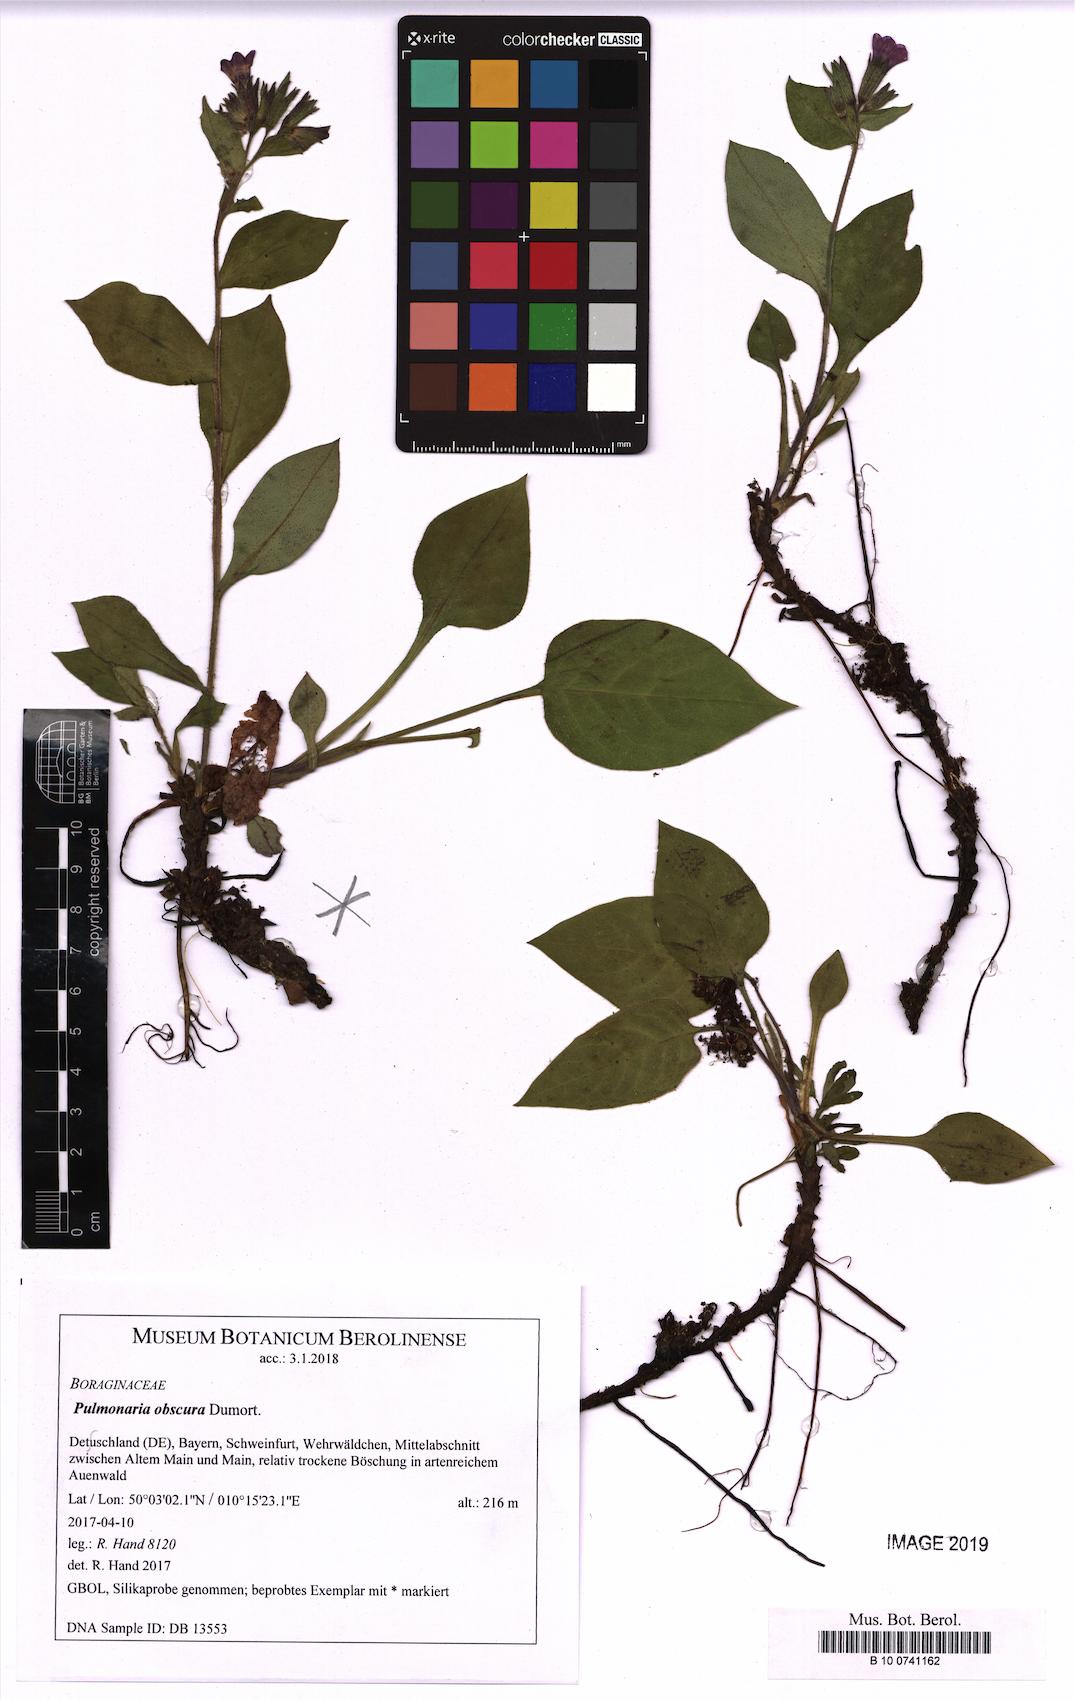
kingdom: Plantae
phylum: Tracheophyta
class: Magnoliopsida
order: Boraginales
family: Boraginaceae
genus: Pulmonaria
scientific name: Pulmonaria obscura
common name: Suffolk lungwort
